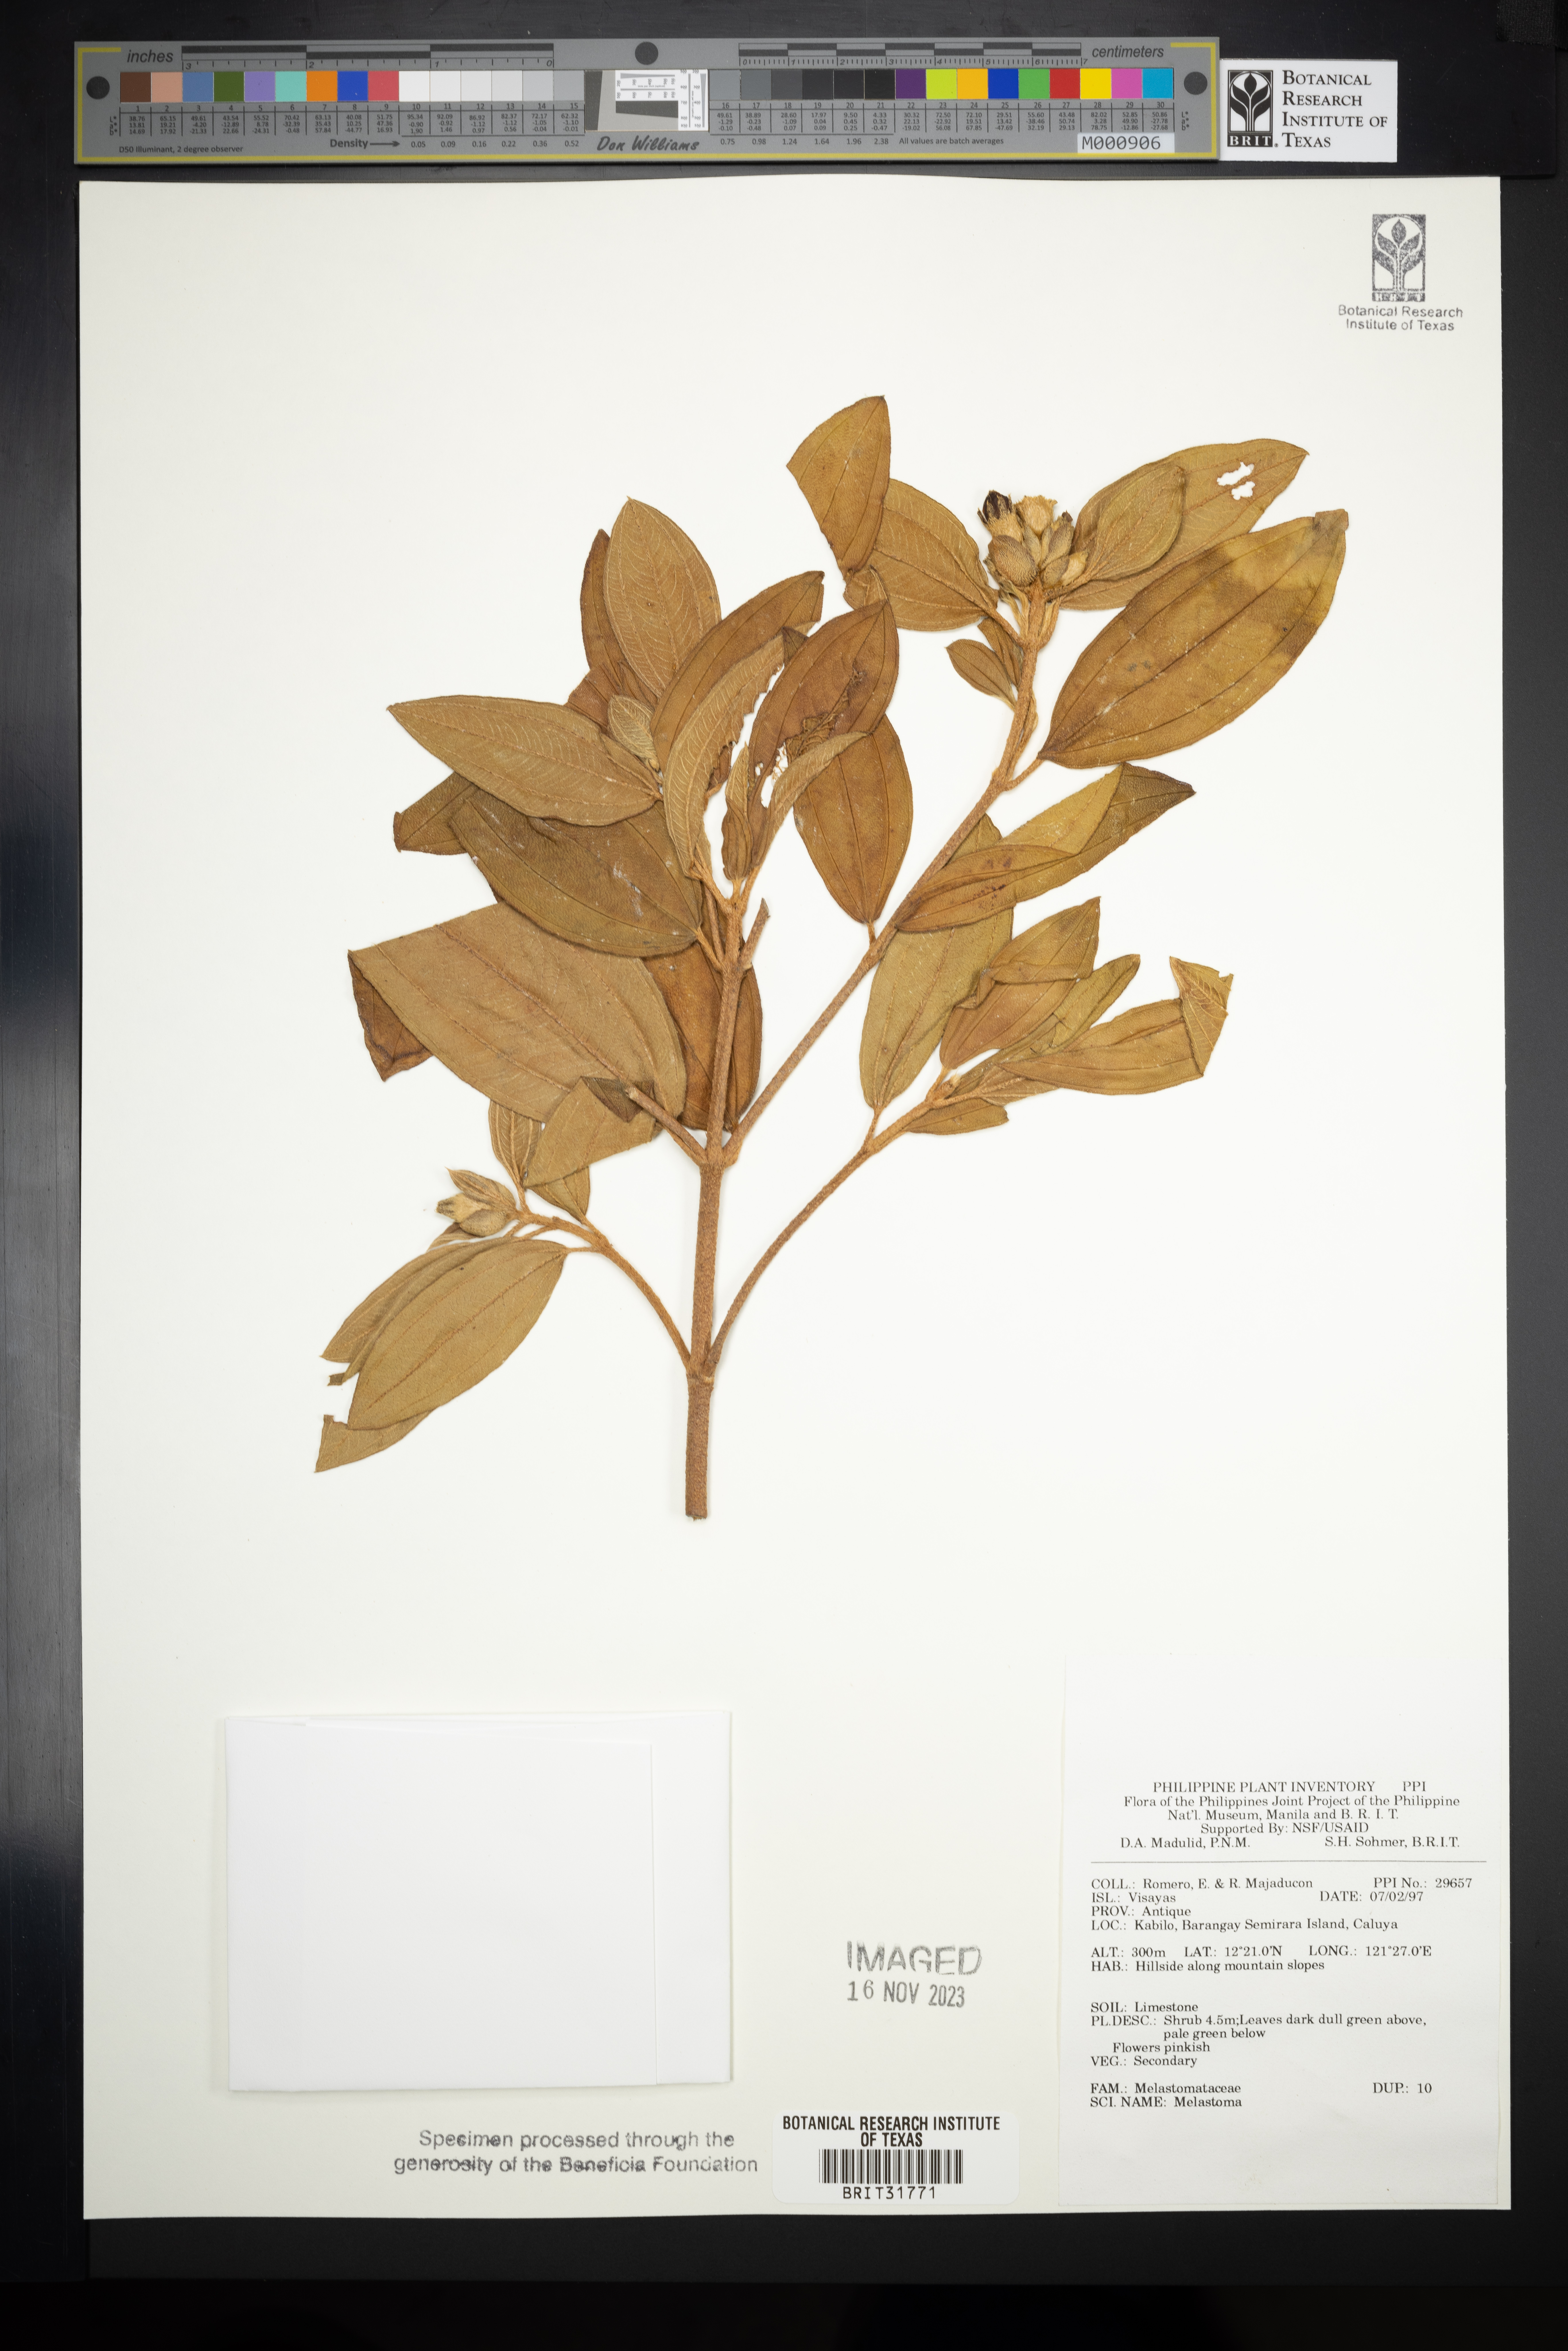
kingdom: Plantae
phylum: Tracheophyta
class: Magnoliopsida
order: Myrtales
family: Melastomataceae
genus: Melastoma
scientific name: Melastoma
